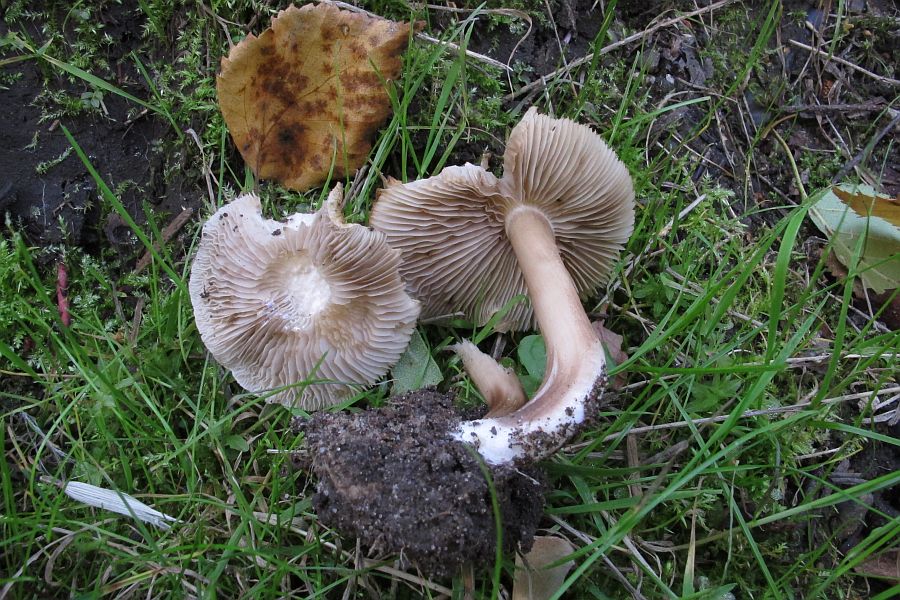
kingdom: Fungi
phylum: Basidiomycota
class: Agaricomycetes
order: Agaricales
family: Inocybaceae
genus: Inocybe
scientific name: Inocybe
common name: trævlhat
